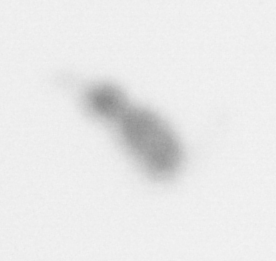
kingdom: Animalia
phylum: Arthropoda
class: Copepoda
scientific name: Copepoda
